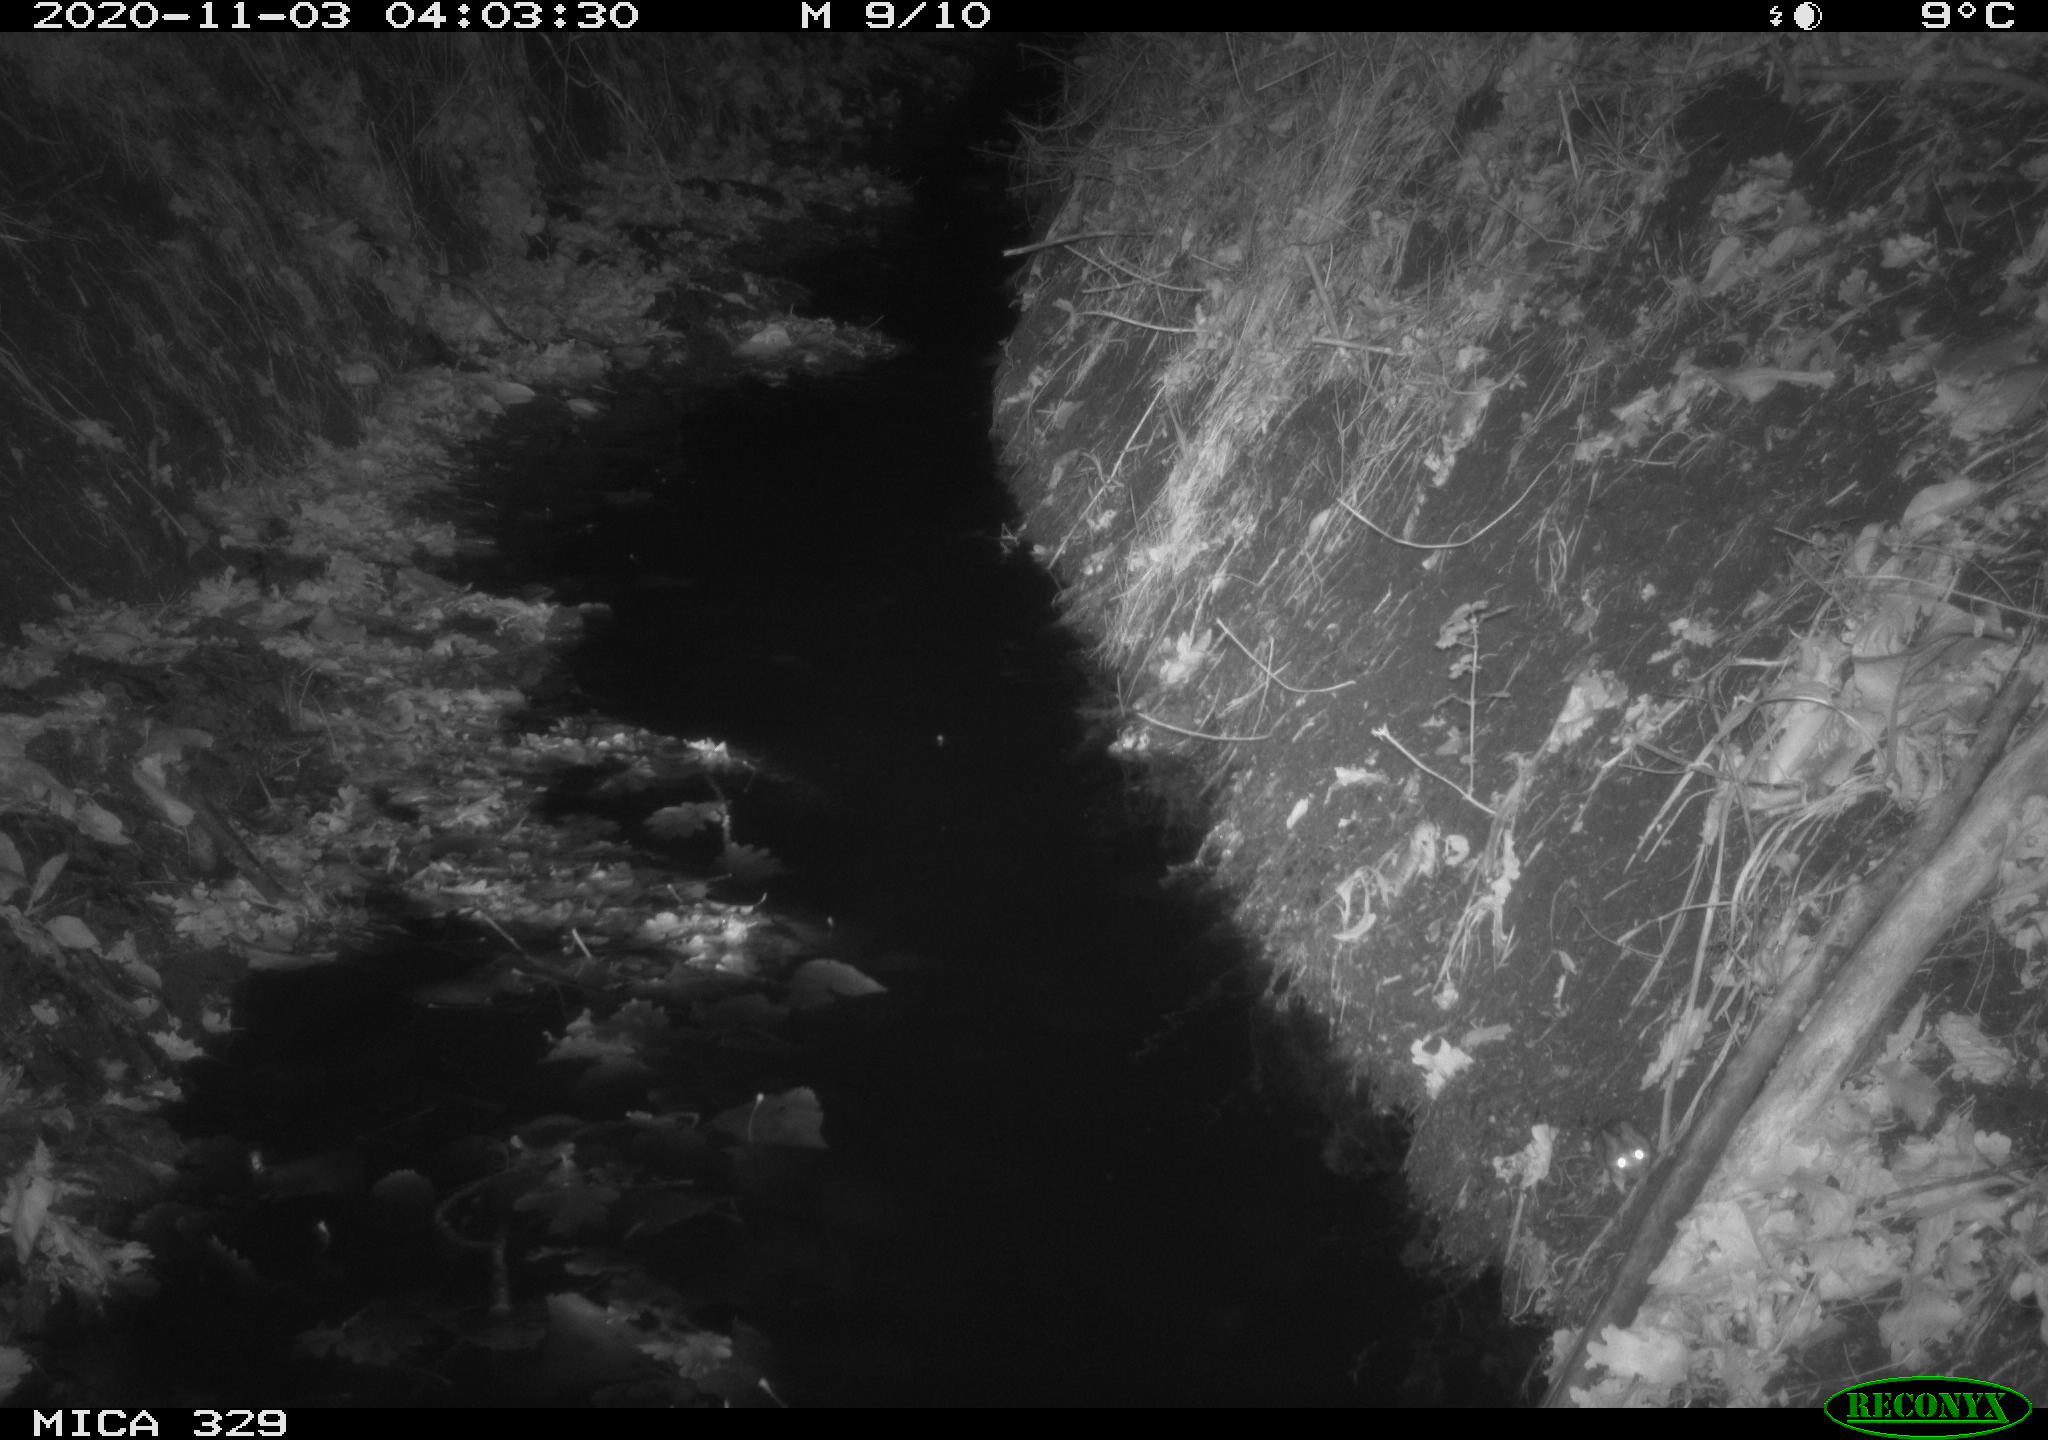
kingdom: Animalia
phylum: Chordata
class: Mammalia
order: Rodentia
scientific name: Rodentia
